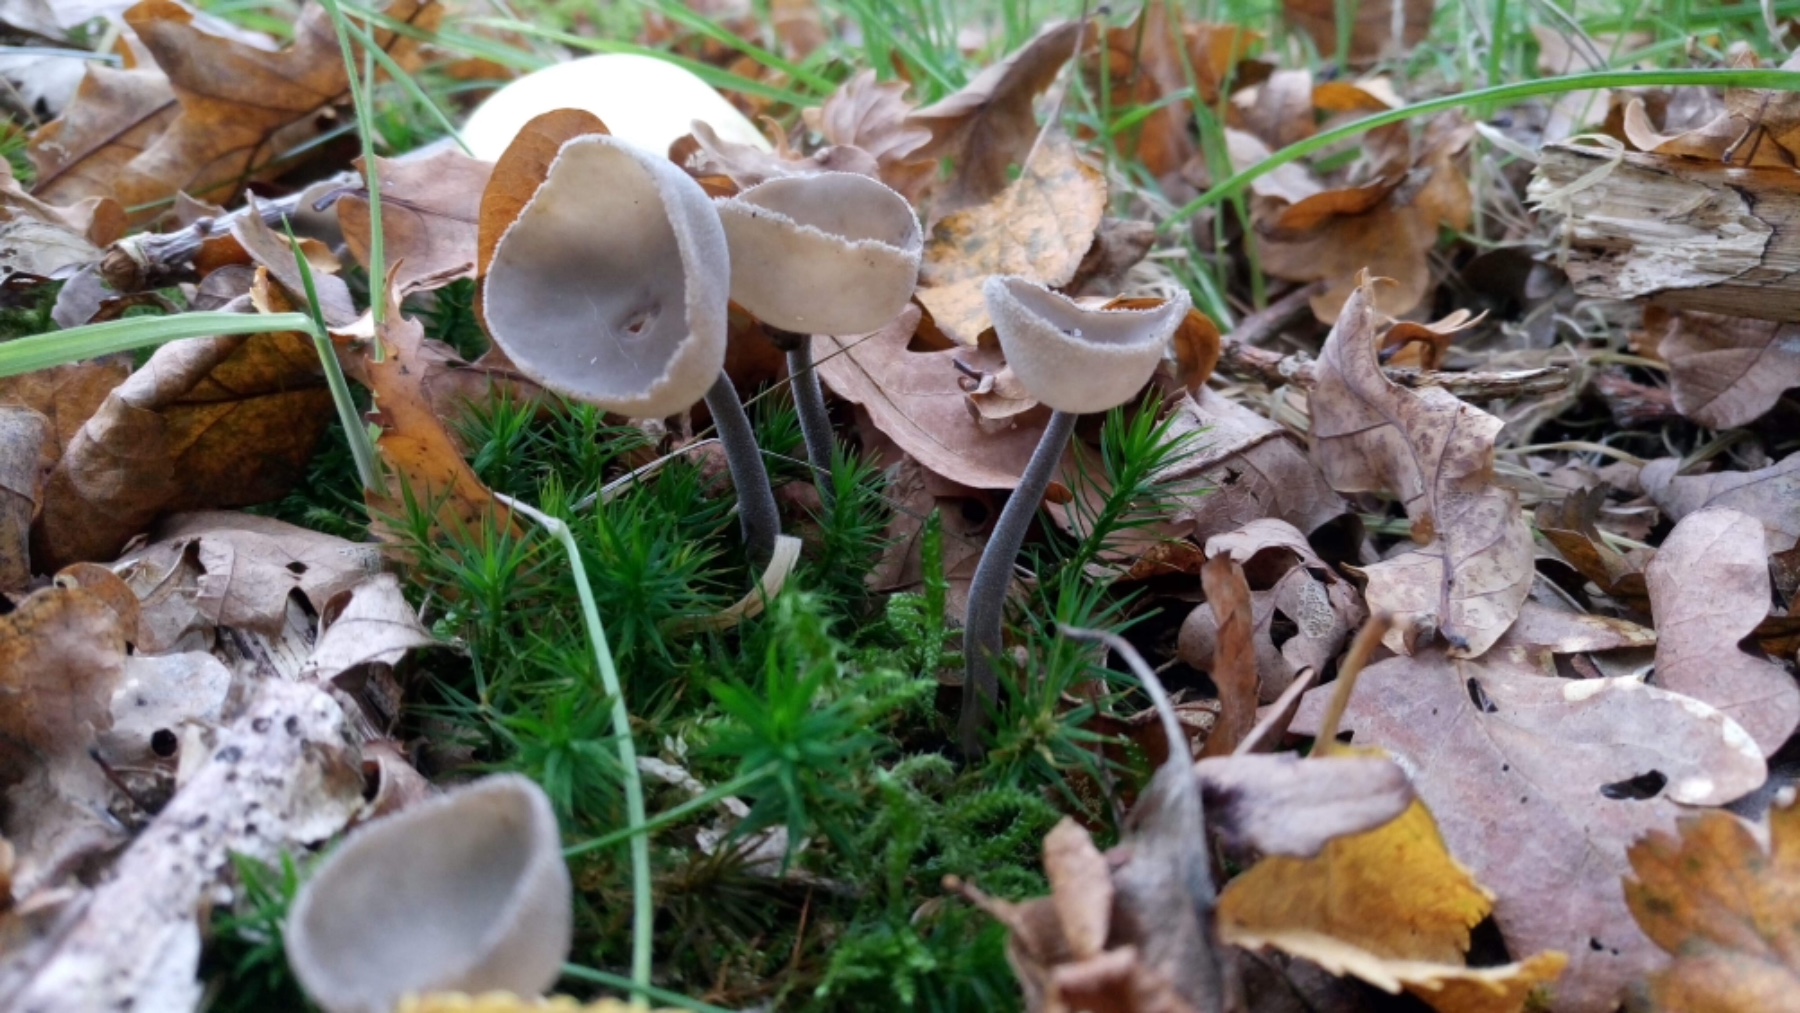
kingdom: Fungi
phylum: Ascomycota
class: Pezizomycetes
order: Pezizales
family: Helvellaceae
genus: Helvella
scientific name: Helvella macropus
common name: højstokket foldhat
